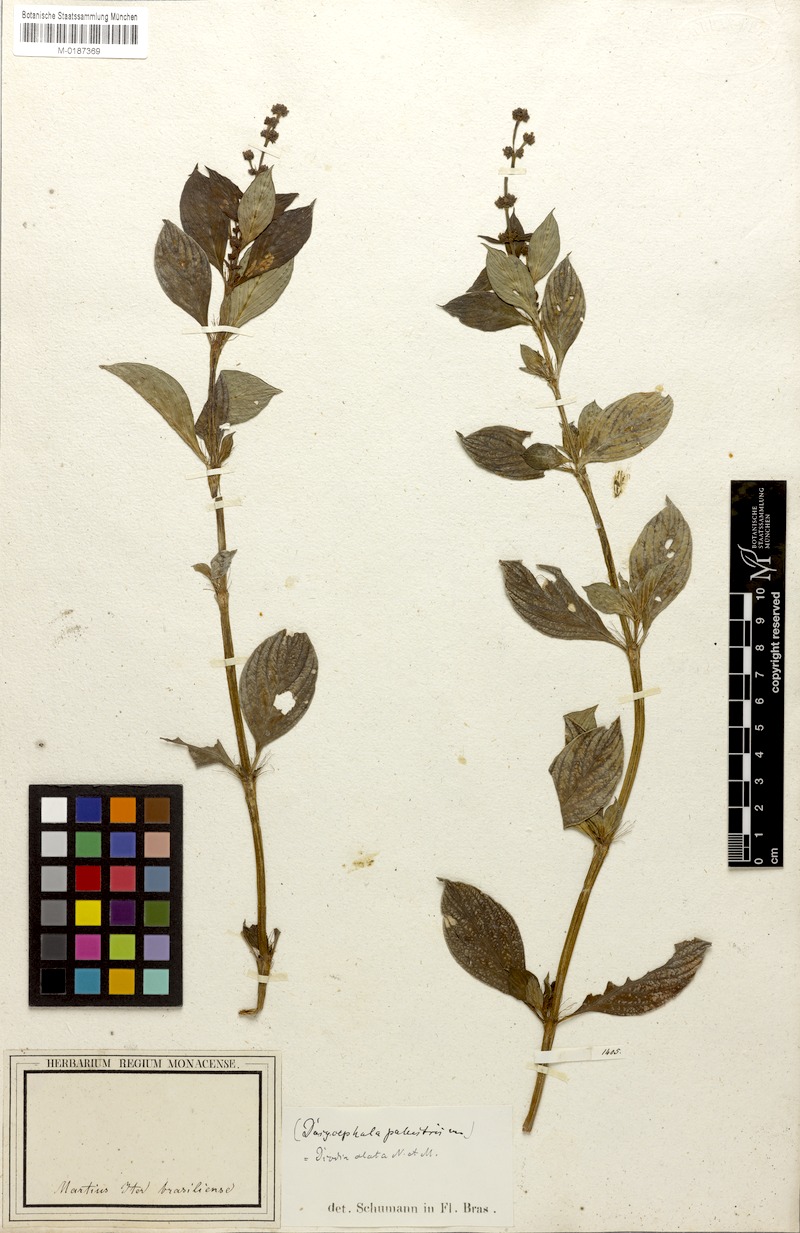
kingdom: Plantae
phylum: Tracheophyta
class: Magnoliopsida
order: Gentianales
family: Rubiaceae
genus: Galianthe
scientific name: Galianthe palustris
